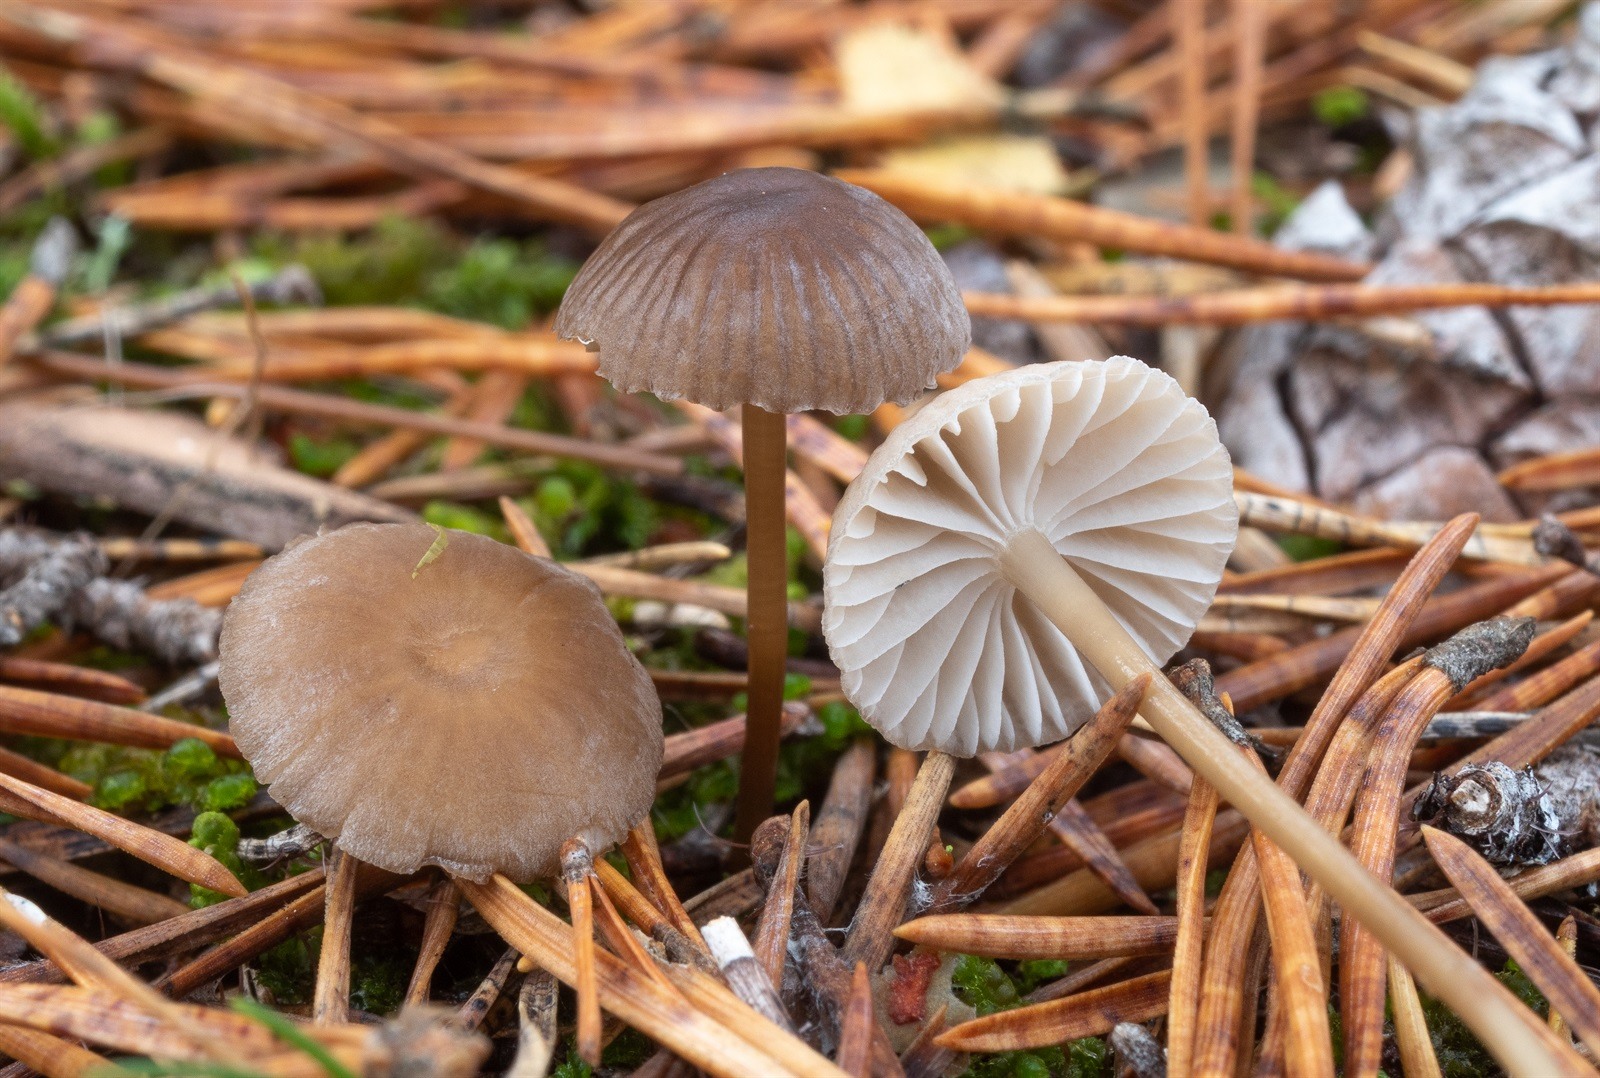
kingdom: Fungi
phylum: Basidiomycota
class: Agaricomycetes
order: Agaricales
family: Mycenaceae
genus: Mycena
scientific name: Mycena clavicularis
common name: Needle bonnet
